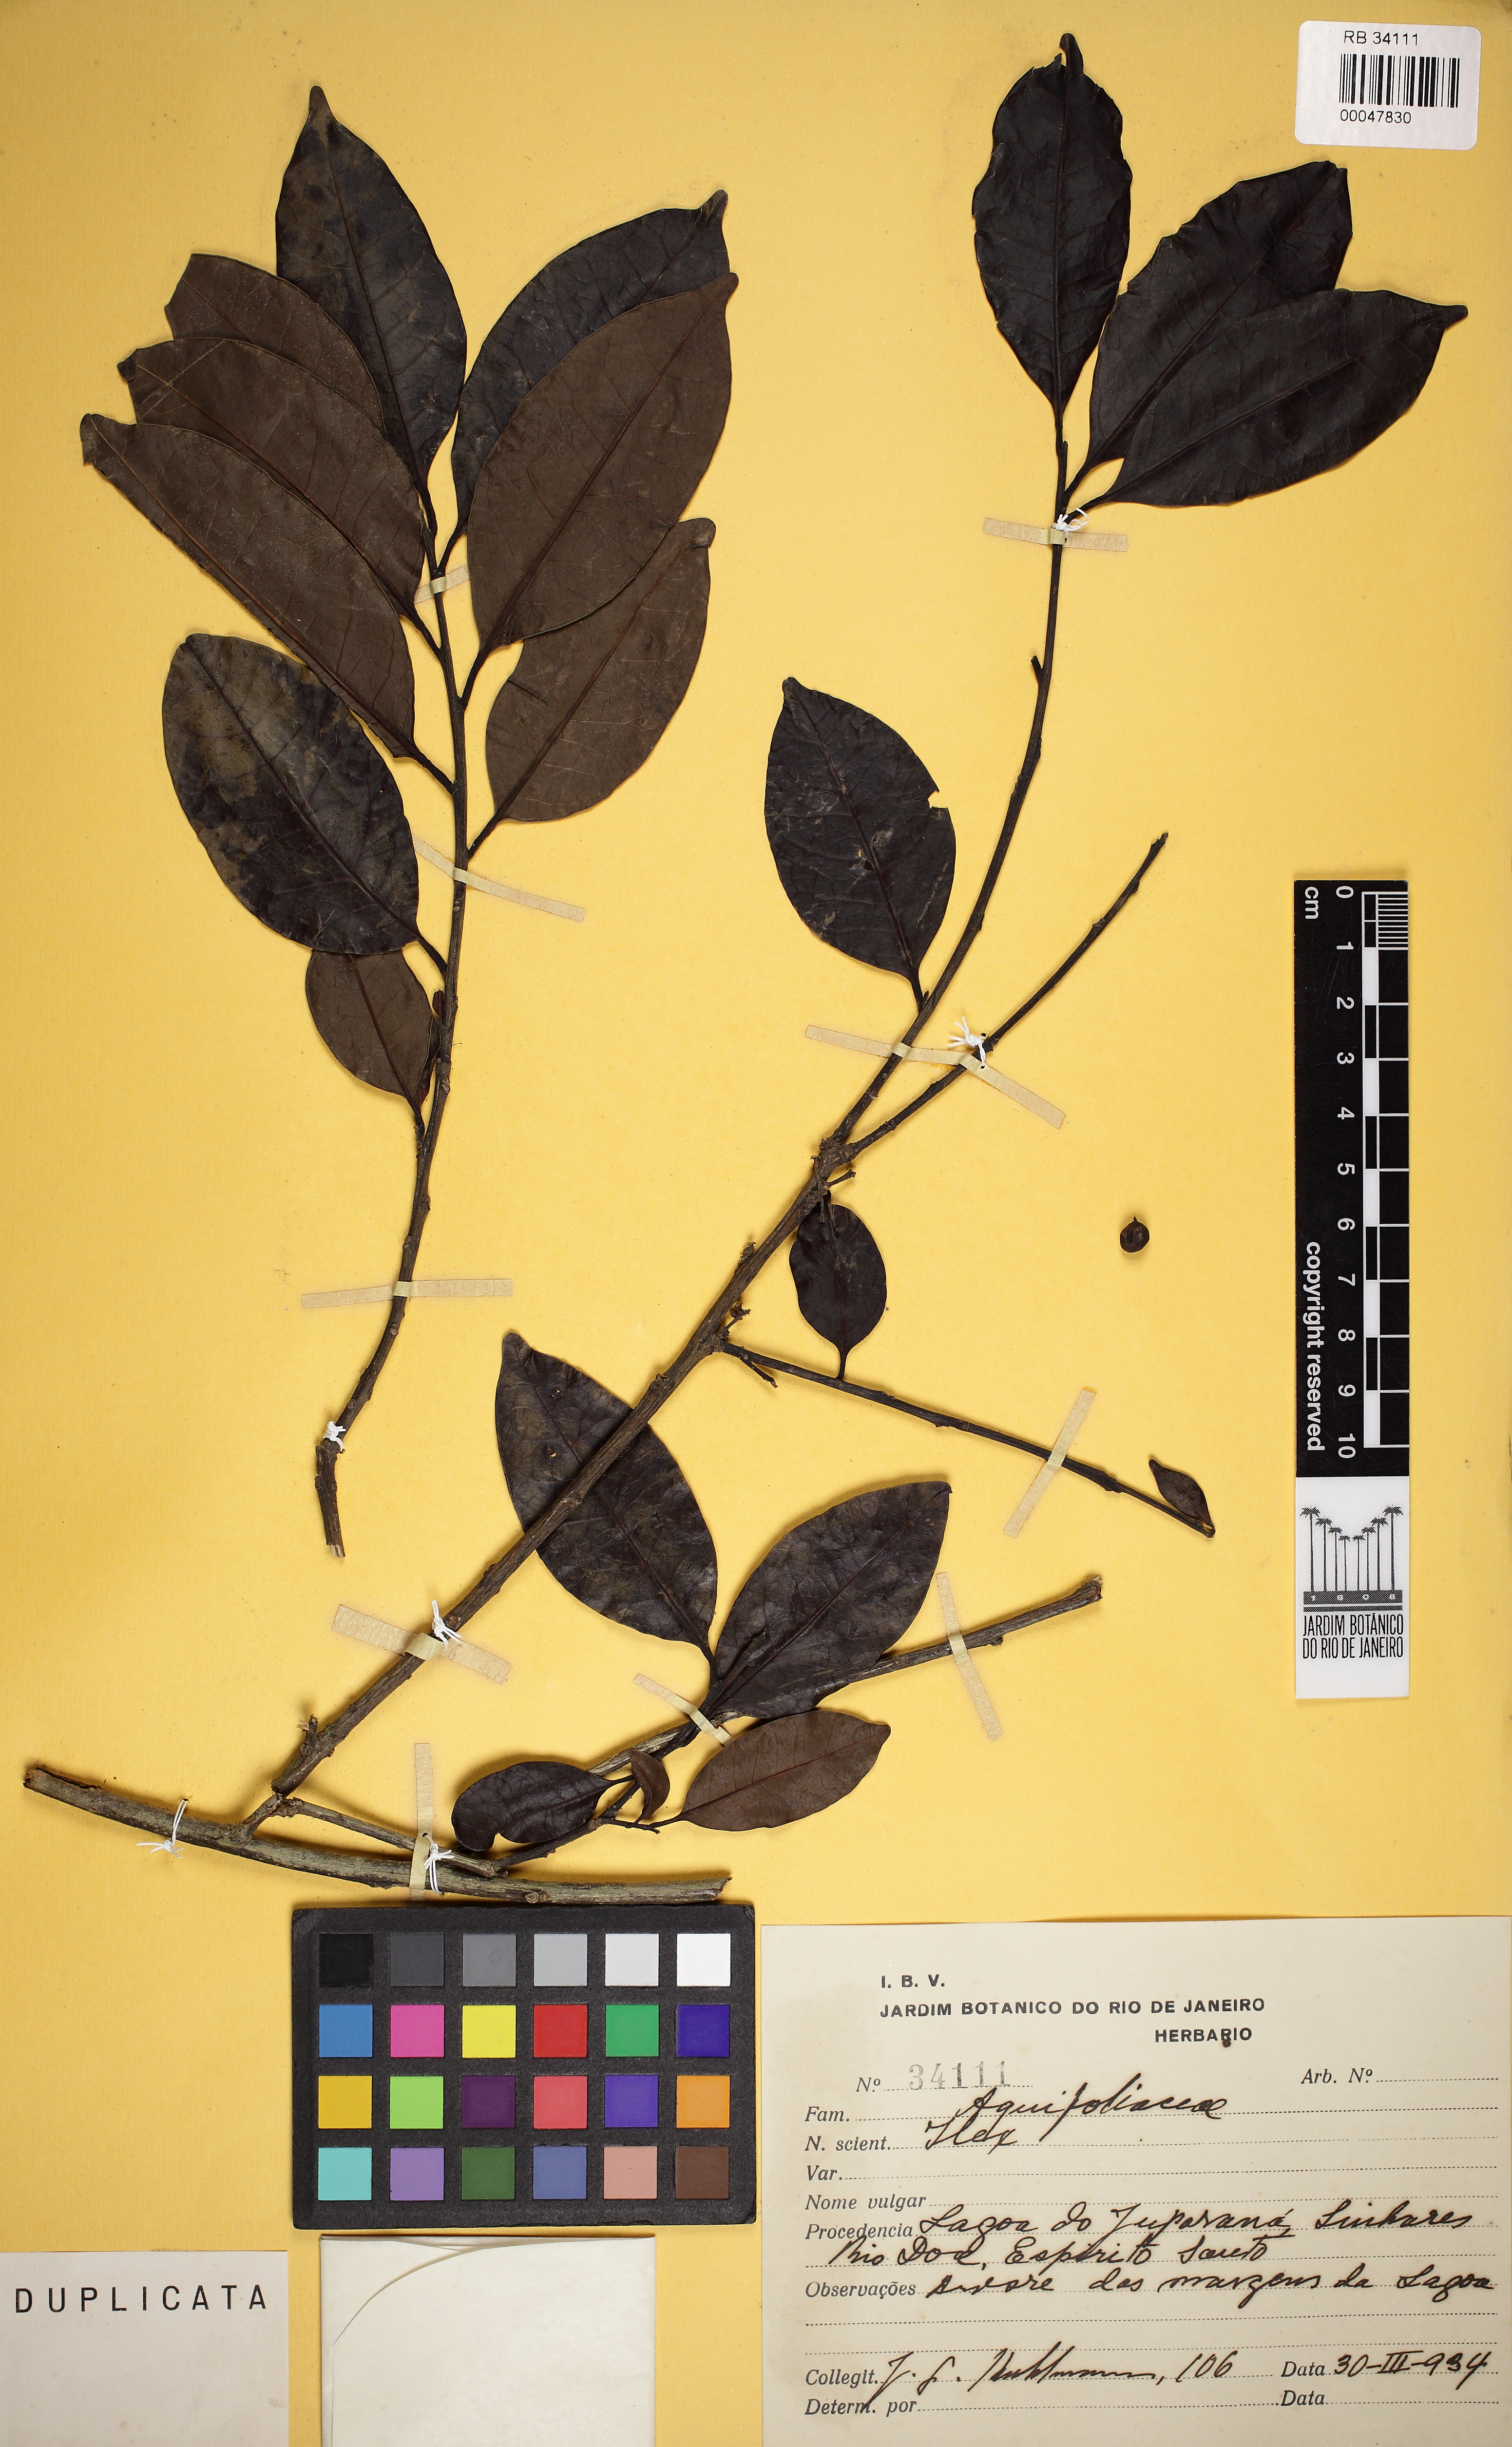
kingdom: Plantae
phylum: Tracheophyta
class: Magnoliopsida
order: Aquifoliales
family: Aquifoliaceae
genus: Ilex
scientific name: Ilex
